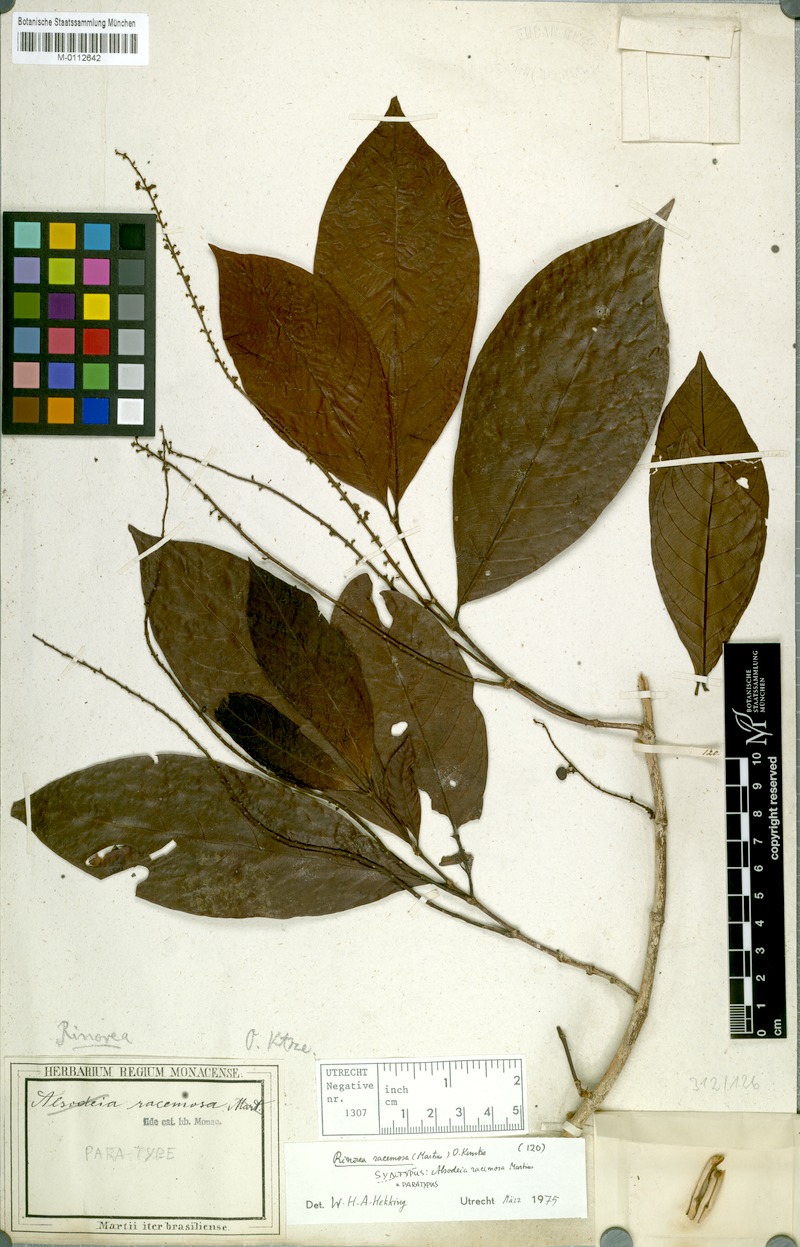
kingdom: Plantae
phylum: Tracheophyta
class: Magnoliopsida
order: Malpighiales
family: Violaceae
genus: Rinorea
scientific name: Rinorea racemosa
